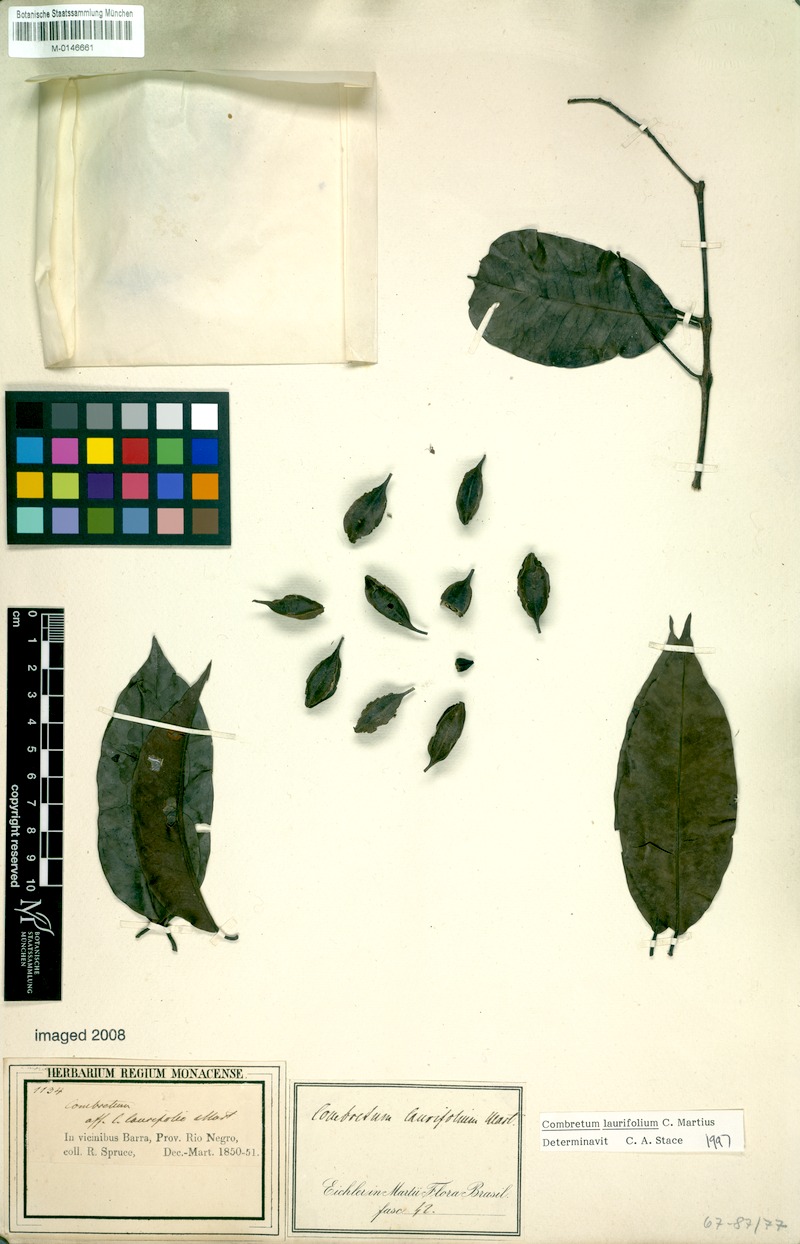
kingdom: Plantae
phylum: Tracheophyta
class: Magnoliopsida
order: Myrtales
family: Combretaceae
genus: Combretum
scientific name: Combretum laurifolium
